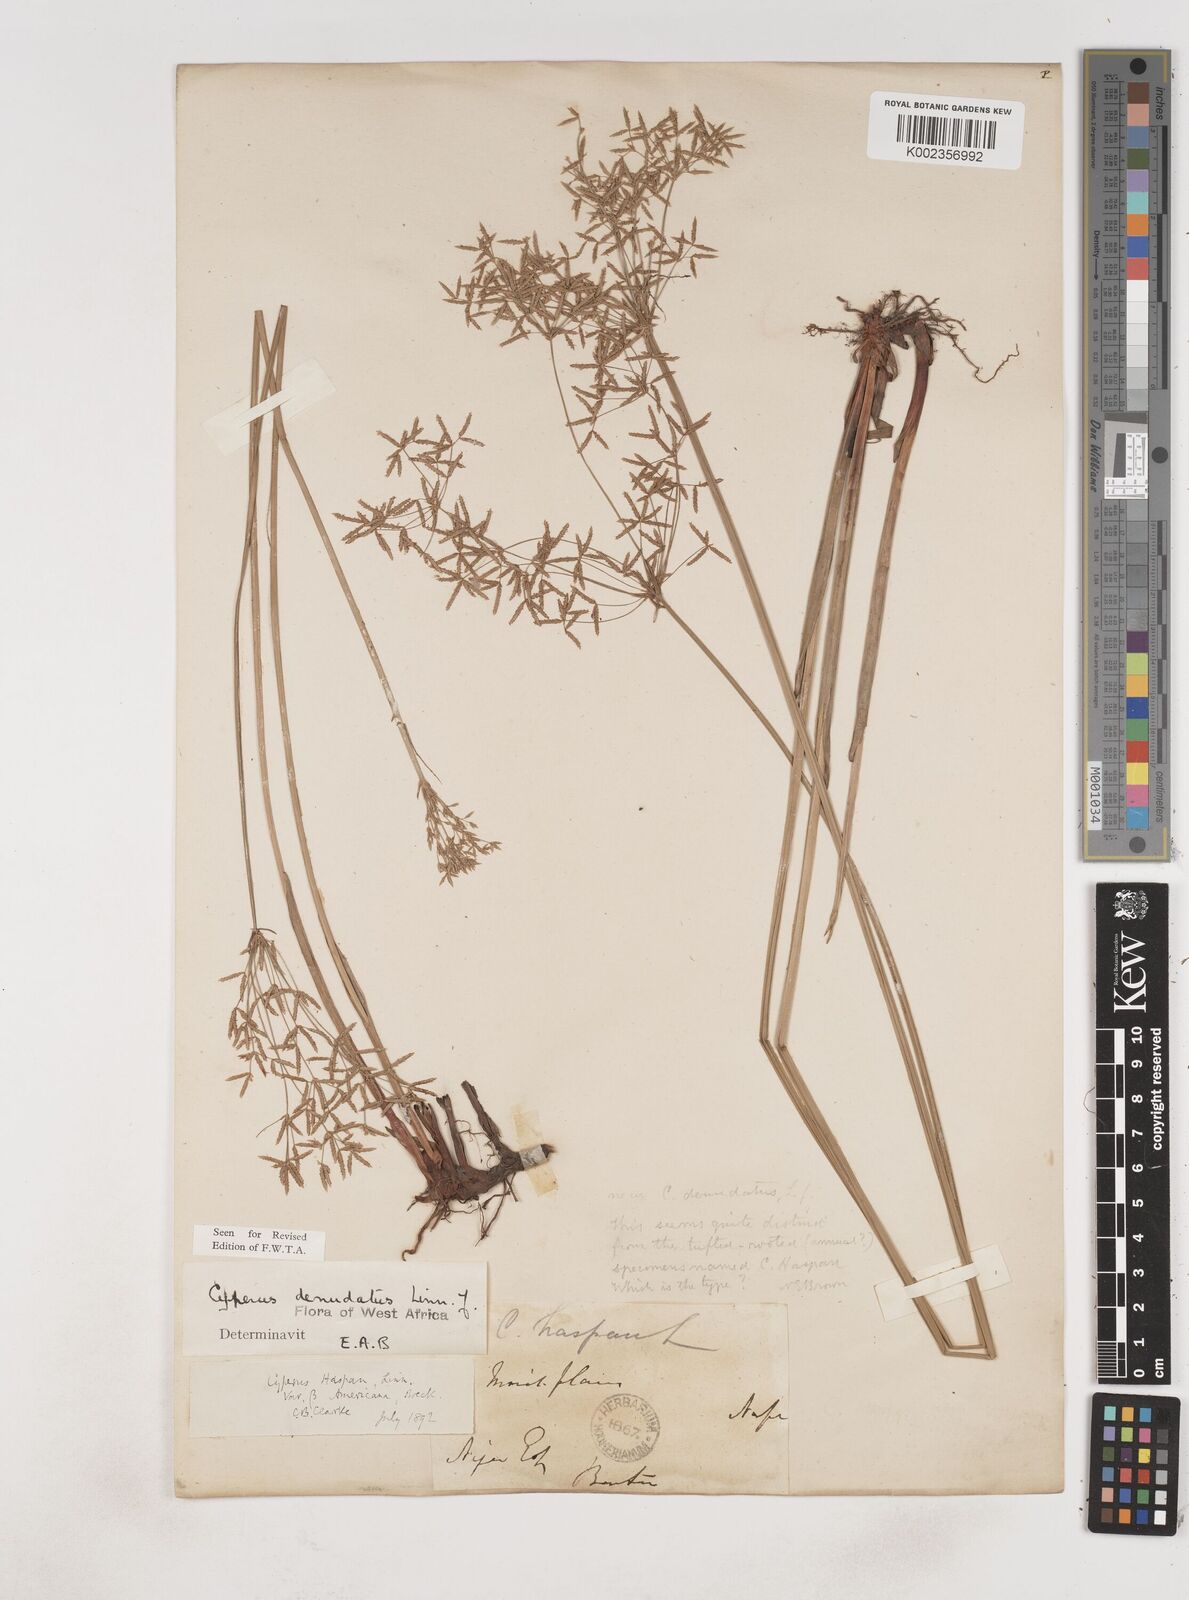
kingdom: Plantae
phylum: Tracheophyta
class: Liliopsida
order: Poales
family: Cyperaceae
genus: Cyperus
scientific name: Cyperus denudatus
